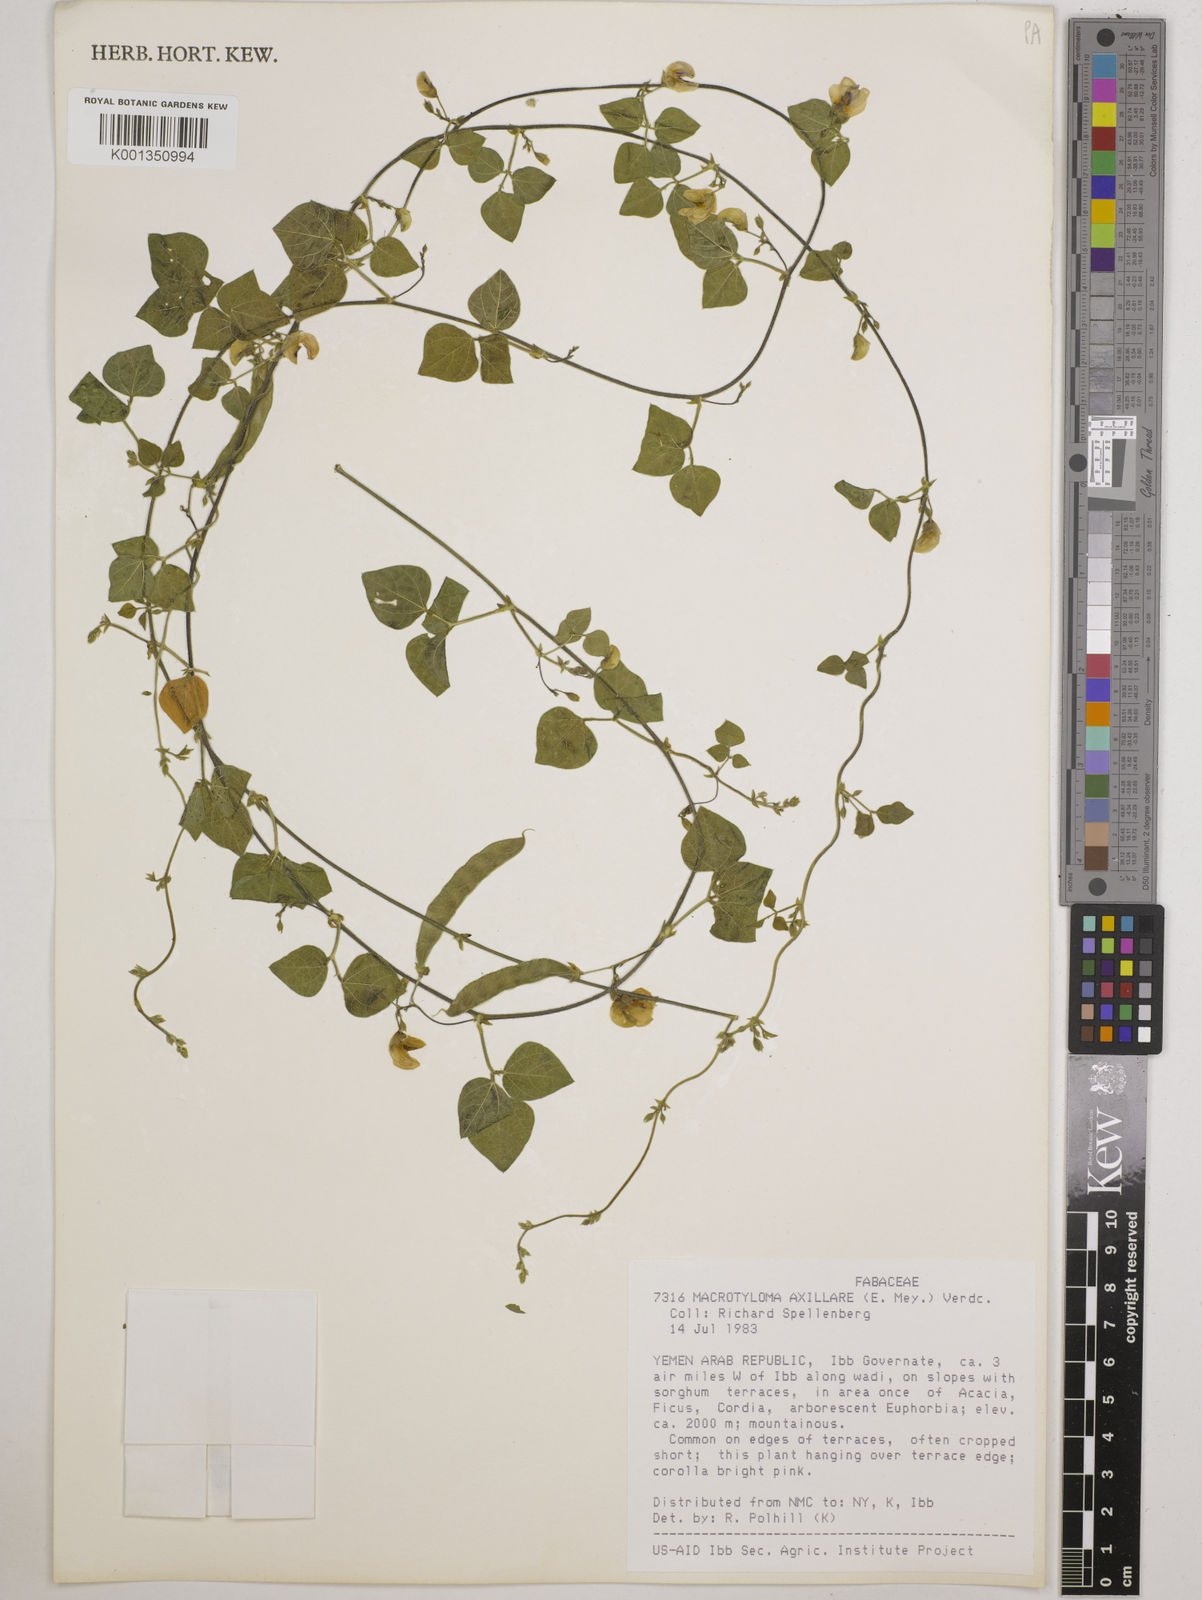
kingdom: Plantae
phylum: Tracheophyta
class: Magnoliopsida
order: Fabales
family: Fabaceae
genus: Macrotyloma
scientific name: Macrotyloma axillare
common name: Perennial horsegram
